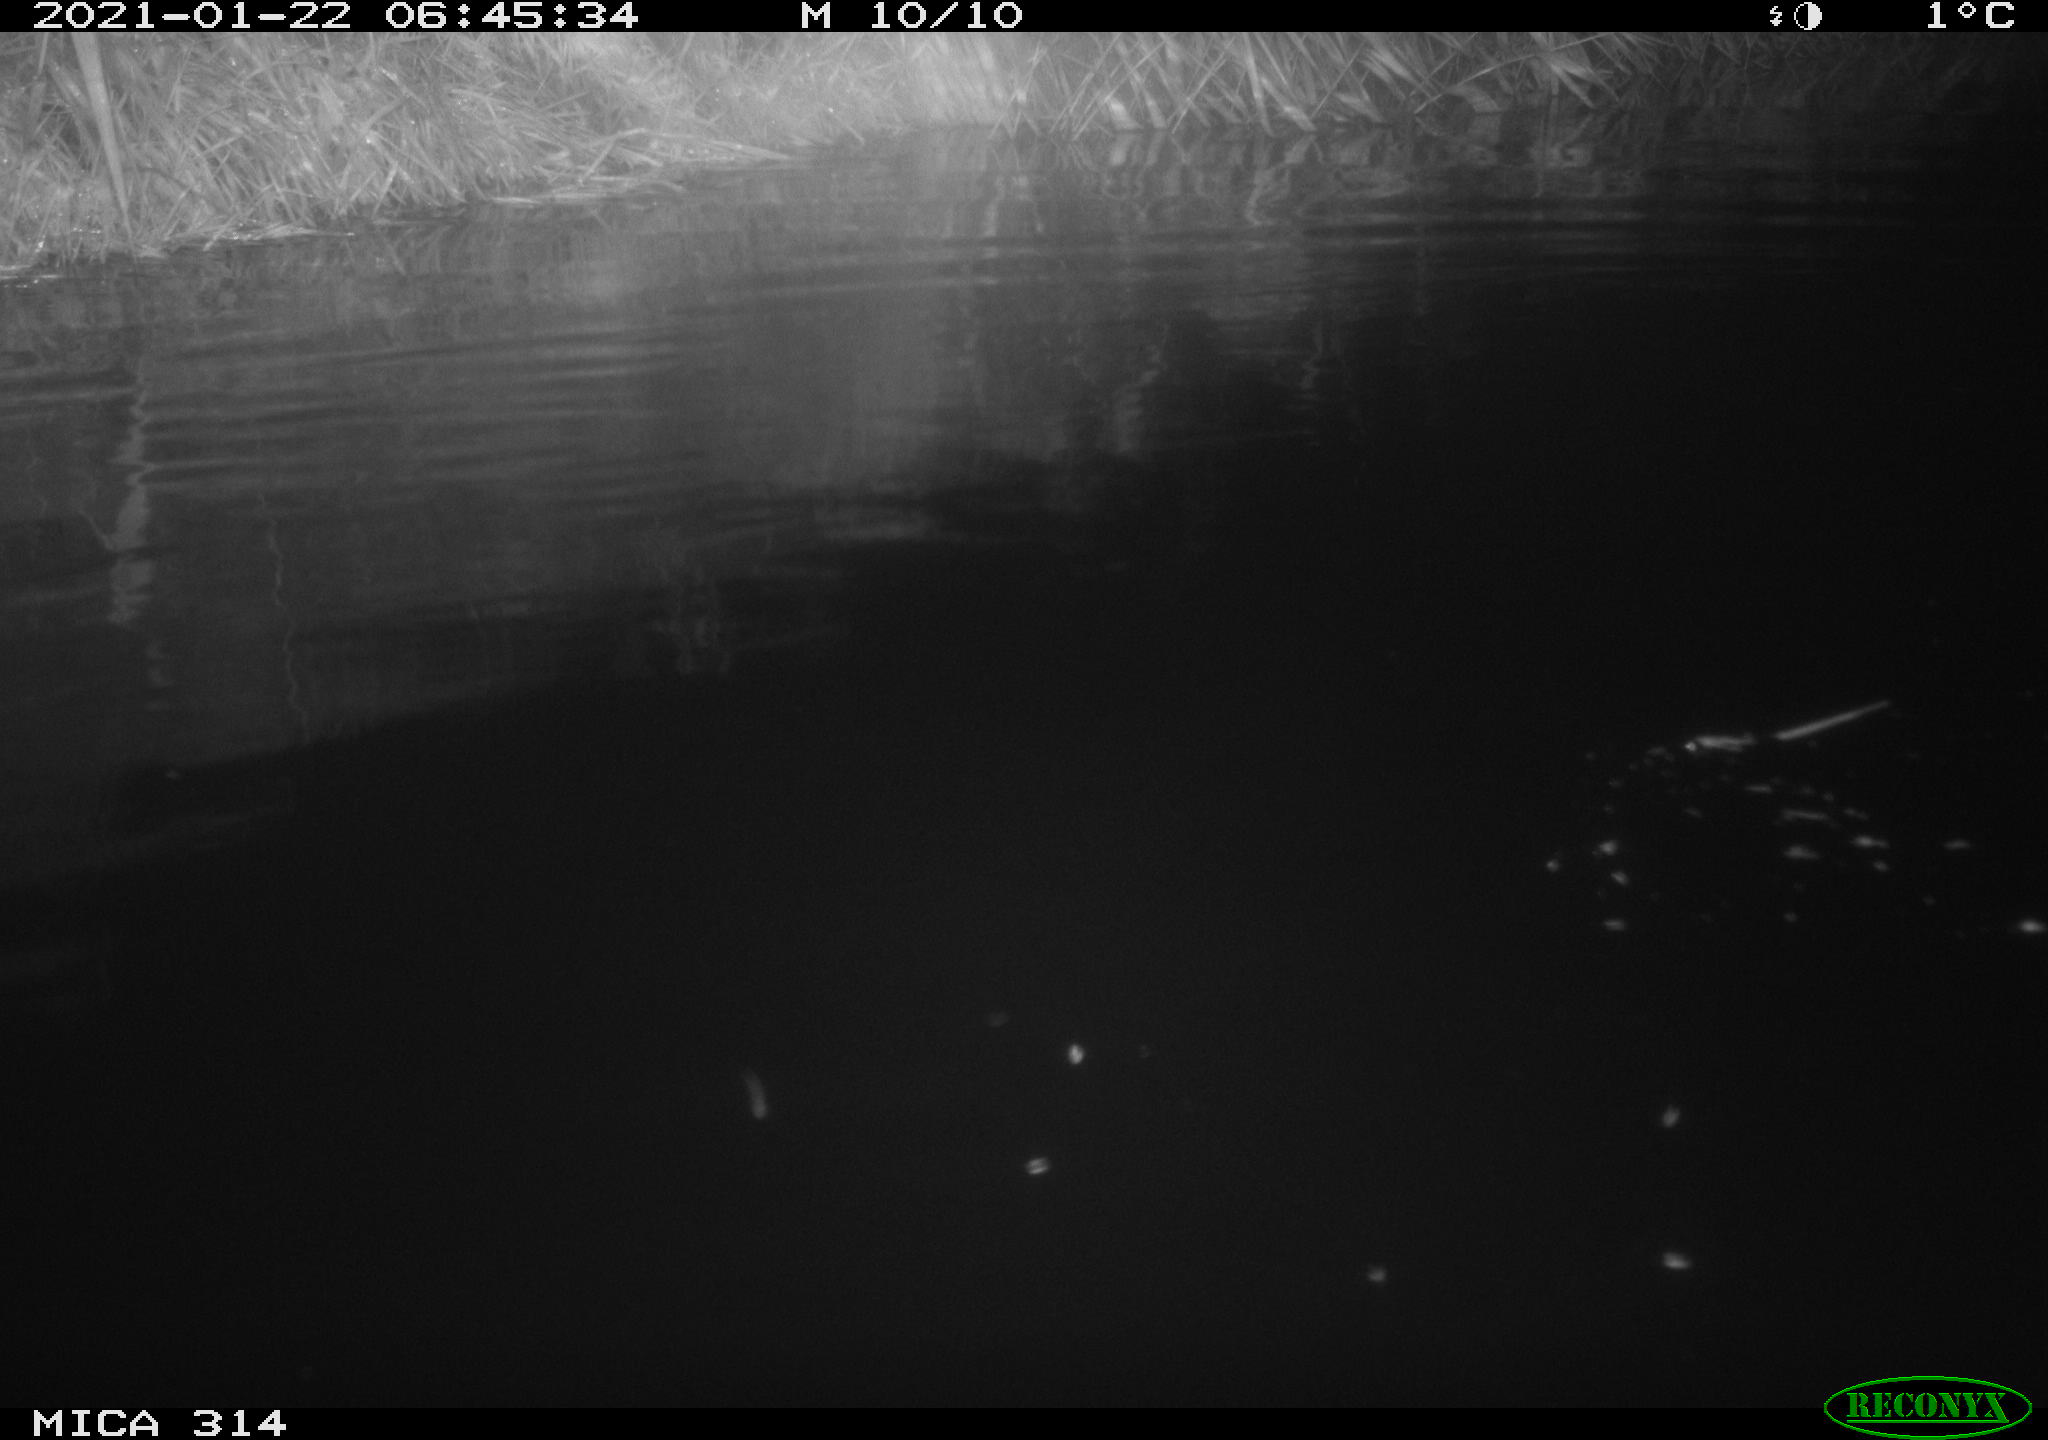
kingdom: Animalia
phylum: Chordata
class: Mammalia
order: Rodentia
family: Muridae
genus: Rattus
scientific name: Rattus norvegicus
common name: Brown rat
